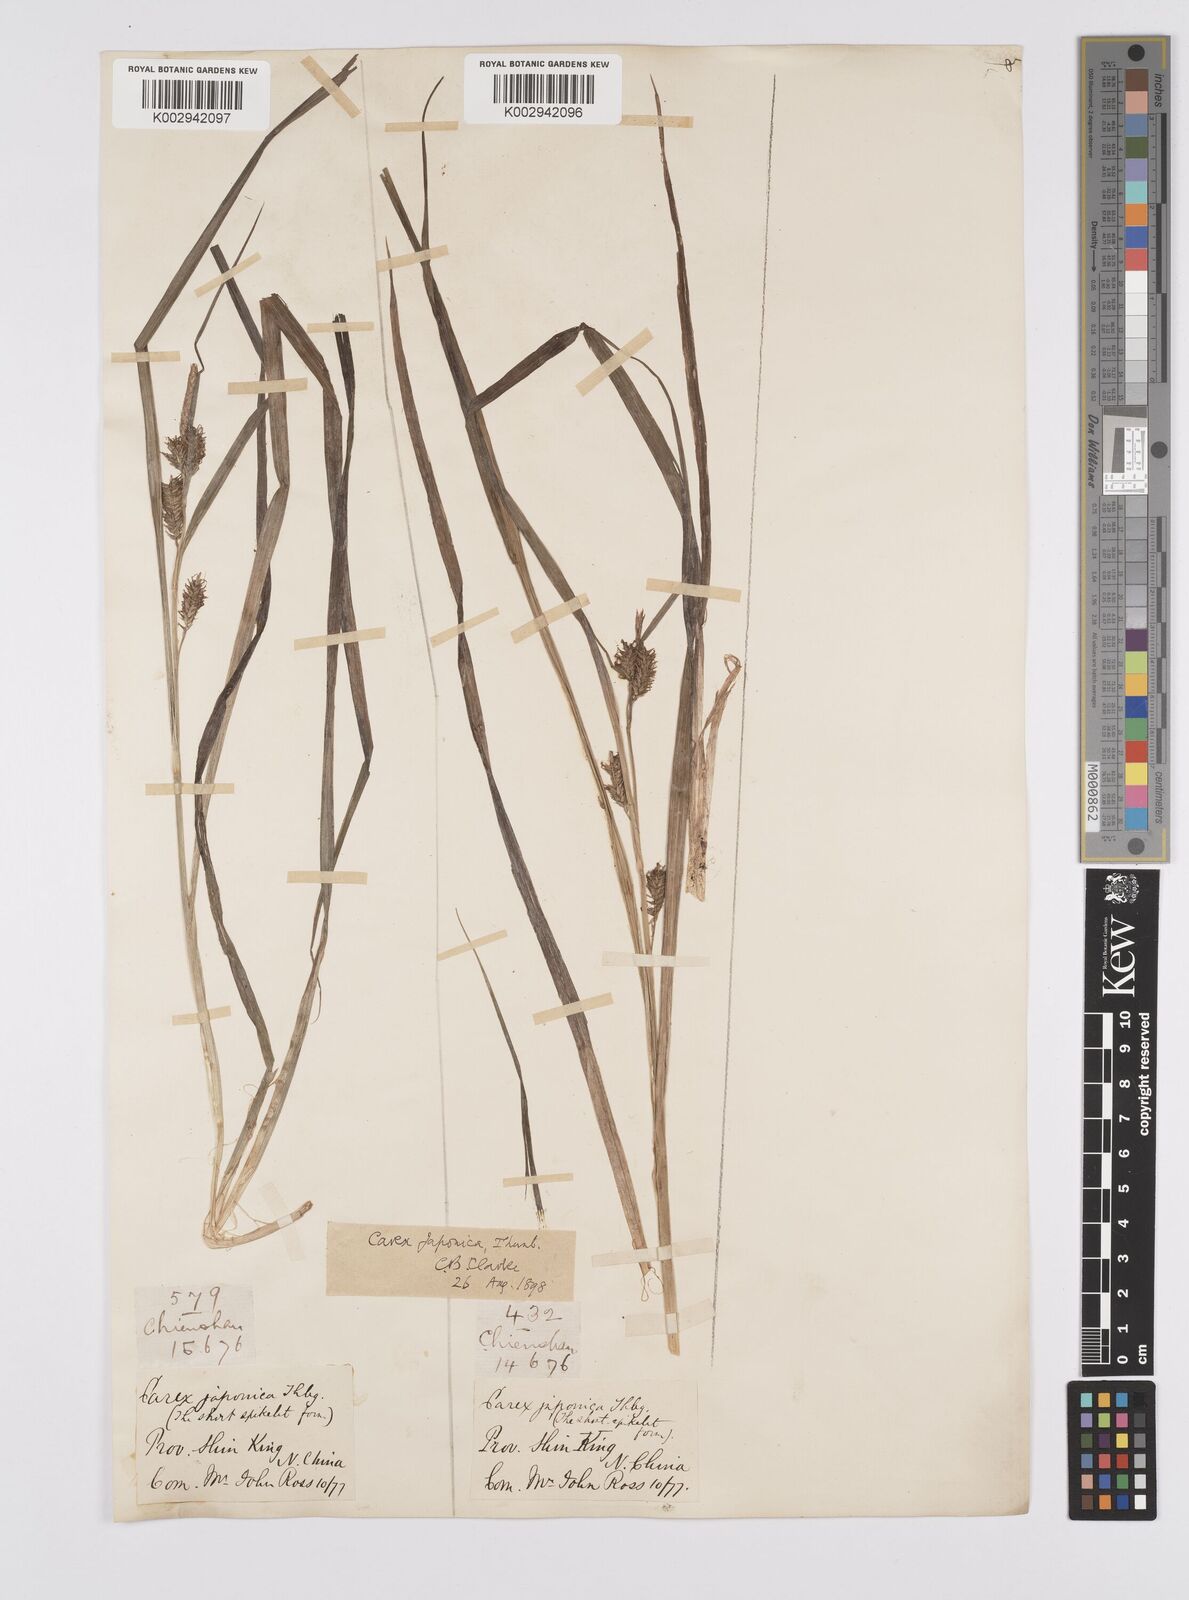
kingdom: Plantae
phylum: Tracheophyta
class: Liliopsida
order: Poales
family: Cyperaceae
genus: Carex
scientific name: Carex japonica
